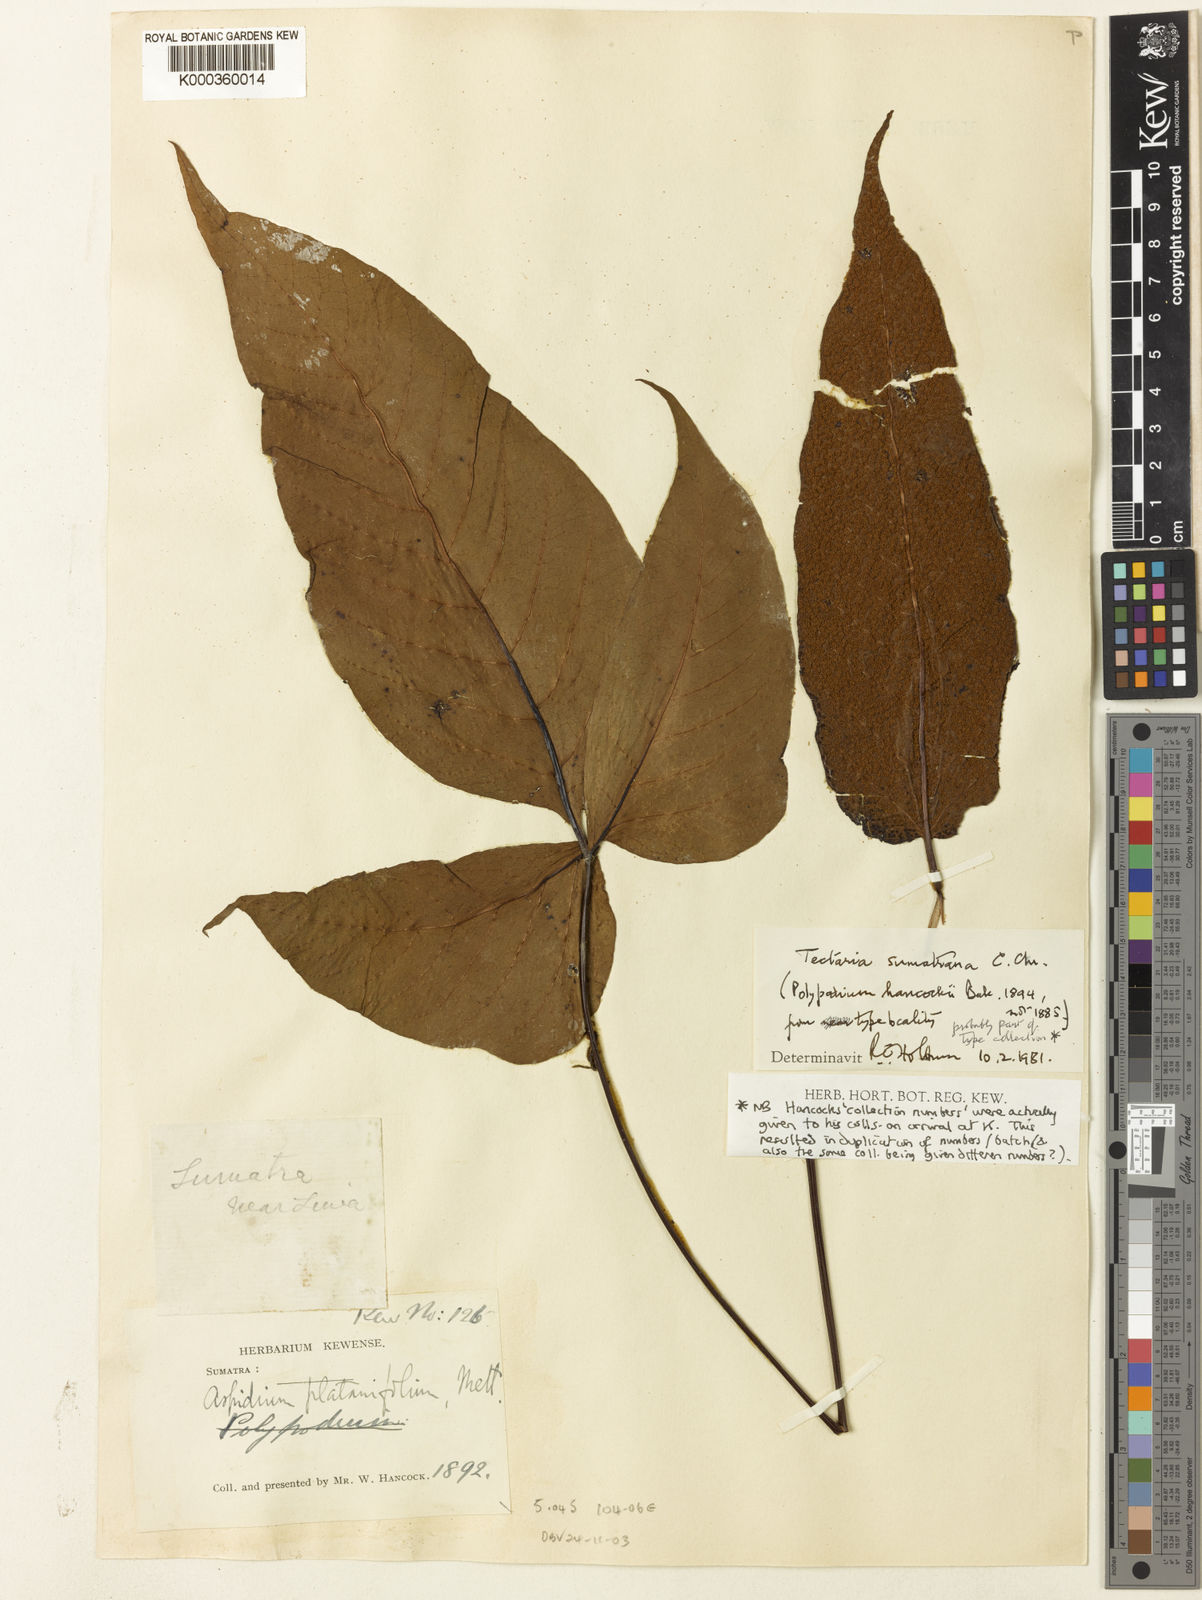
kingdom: Plantae
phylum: Tracheophyta
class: Polypodiopsida
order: Polypodiales
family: Tectariaceae
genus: Tectaria
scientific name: Tectaria sumatrana
